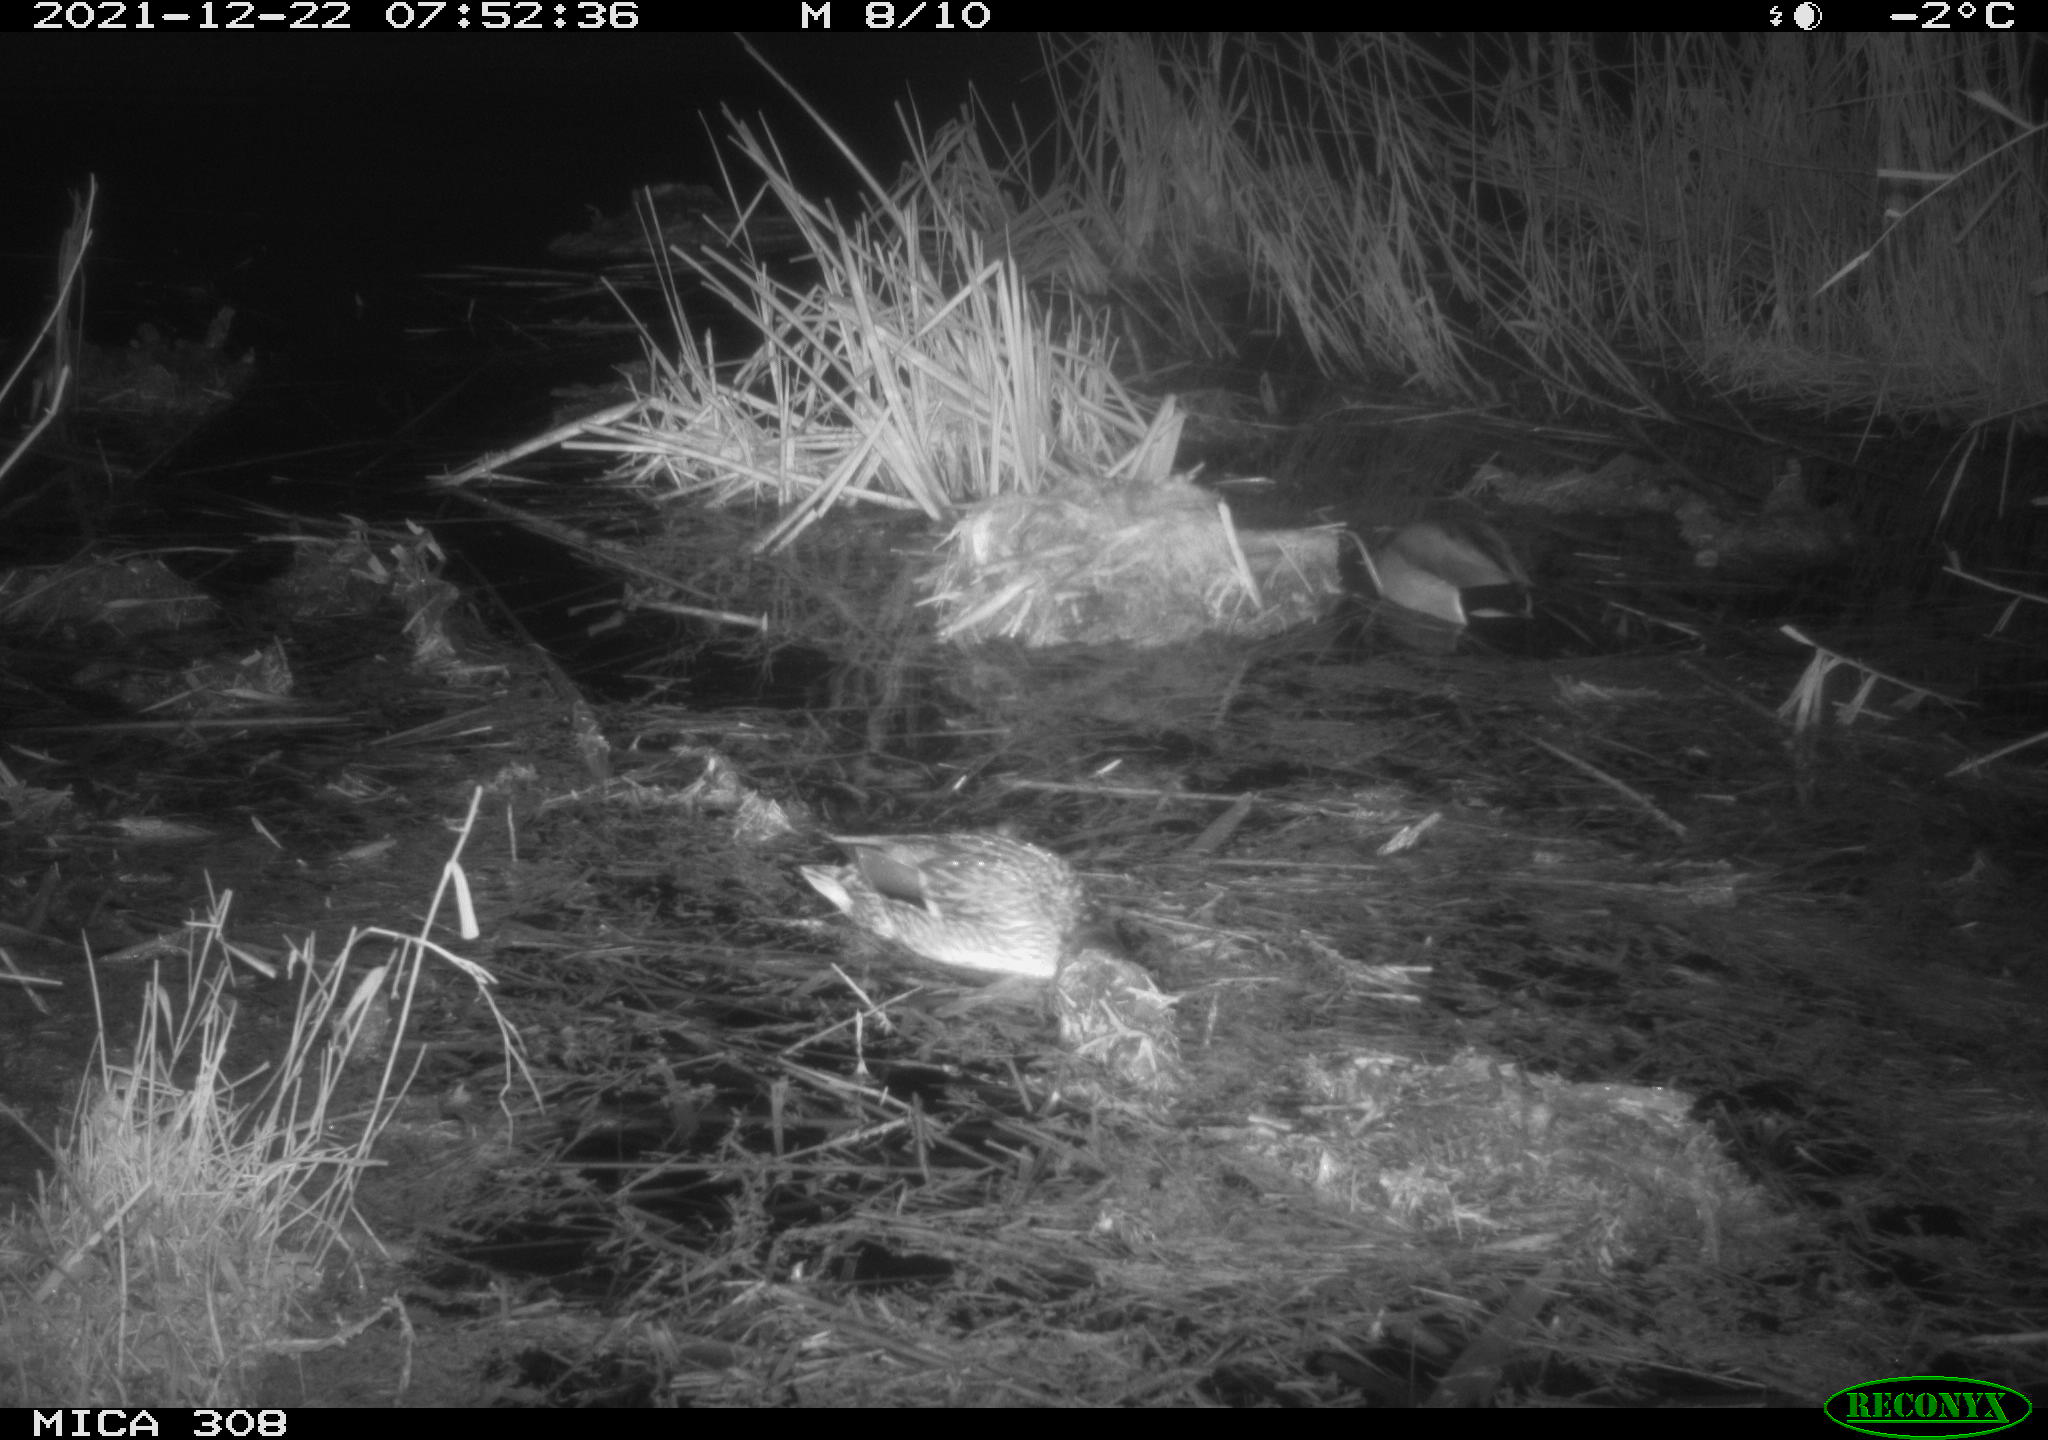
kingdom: Animalia
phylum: Chordata
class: Aves
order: Anseriformes
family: Anatidae
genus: Anas
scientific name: Anas platyrhynchos
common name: Mallard
